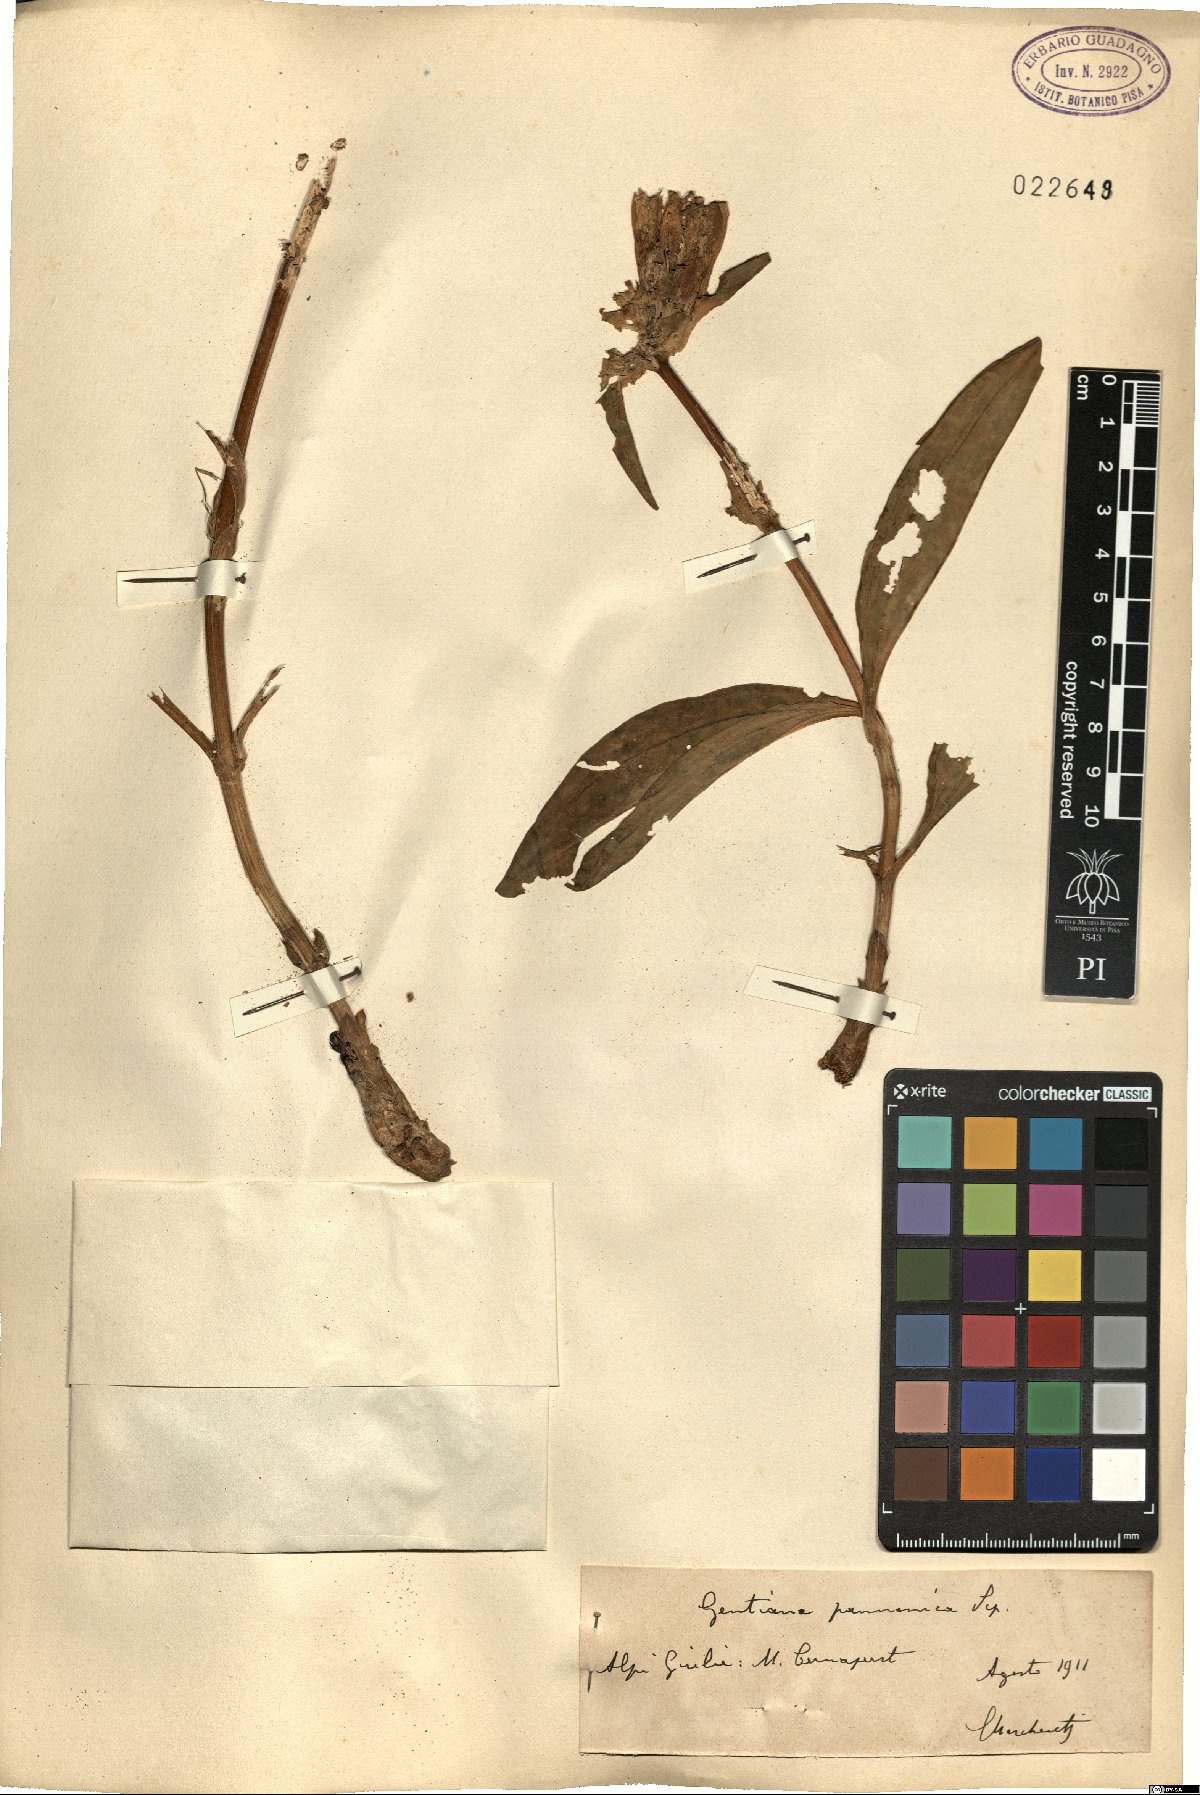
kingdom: Plantae
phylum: Tracheophyta
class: Magnoliopsida
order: Gentianales
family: Gentianaceae
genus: Gentiana
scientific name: Gentiana pannonica
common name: Hungarian gentian
